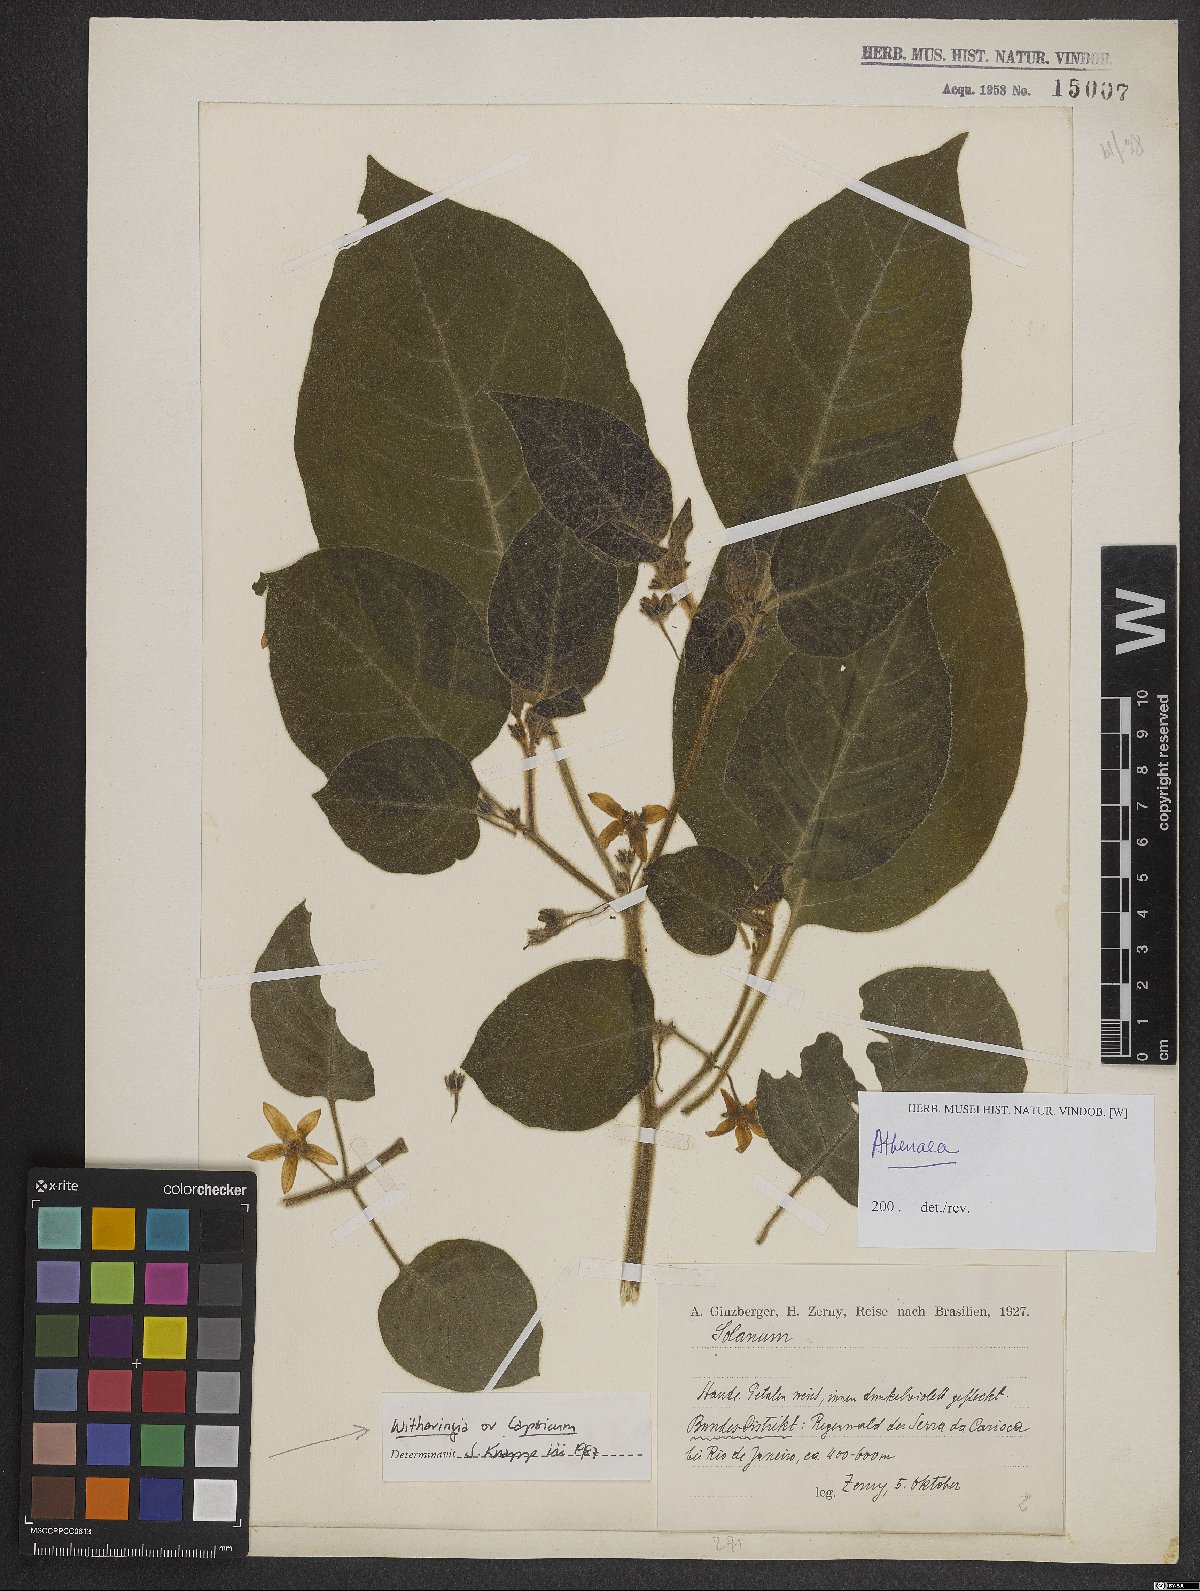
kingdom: Plantae
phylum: Tracheophyta
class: Magnoliopsida
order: Solanales
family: Solanaceae
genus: Witheringia
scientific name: Witheringia
